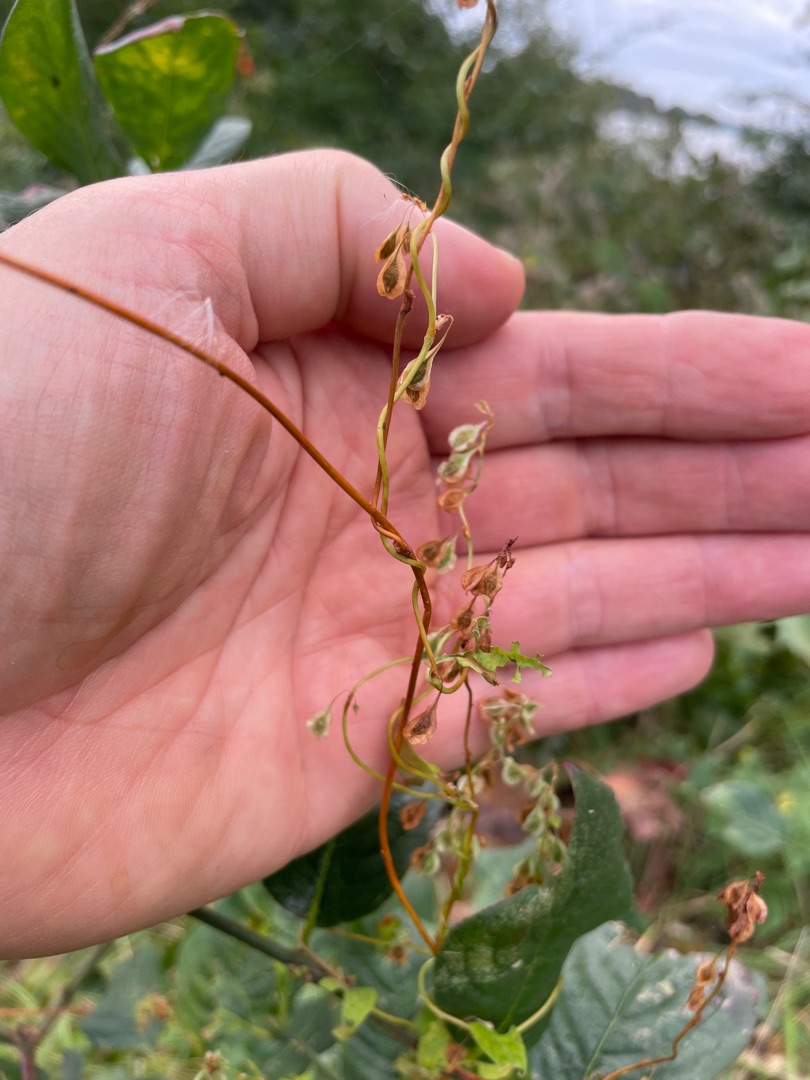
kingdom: Plantae
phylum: Tracheophyta
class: Magnoliopsida
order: Caryophyllales
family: Polygonaceae
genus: Fallopia
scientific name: Fallopia dumetorum
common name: Vinge-pileurt
